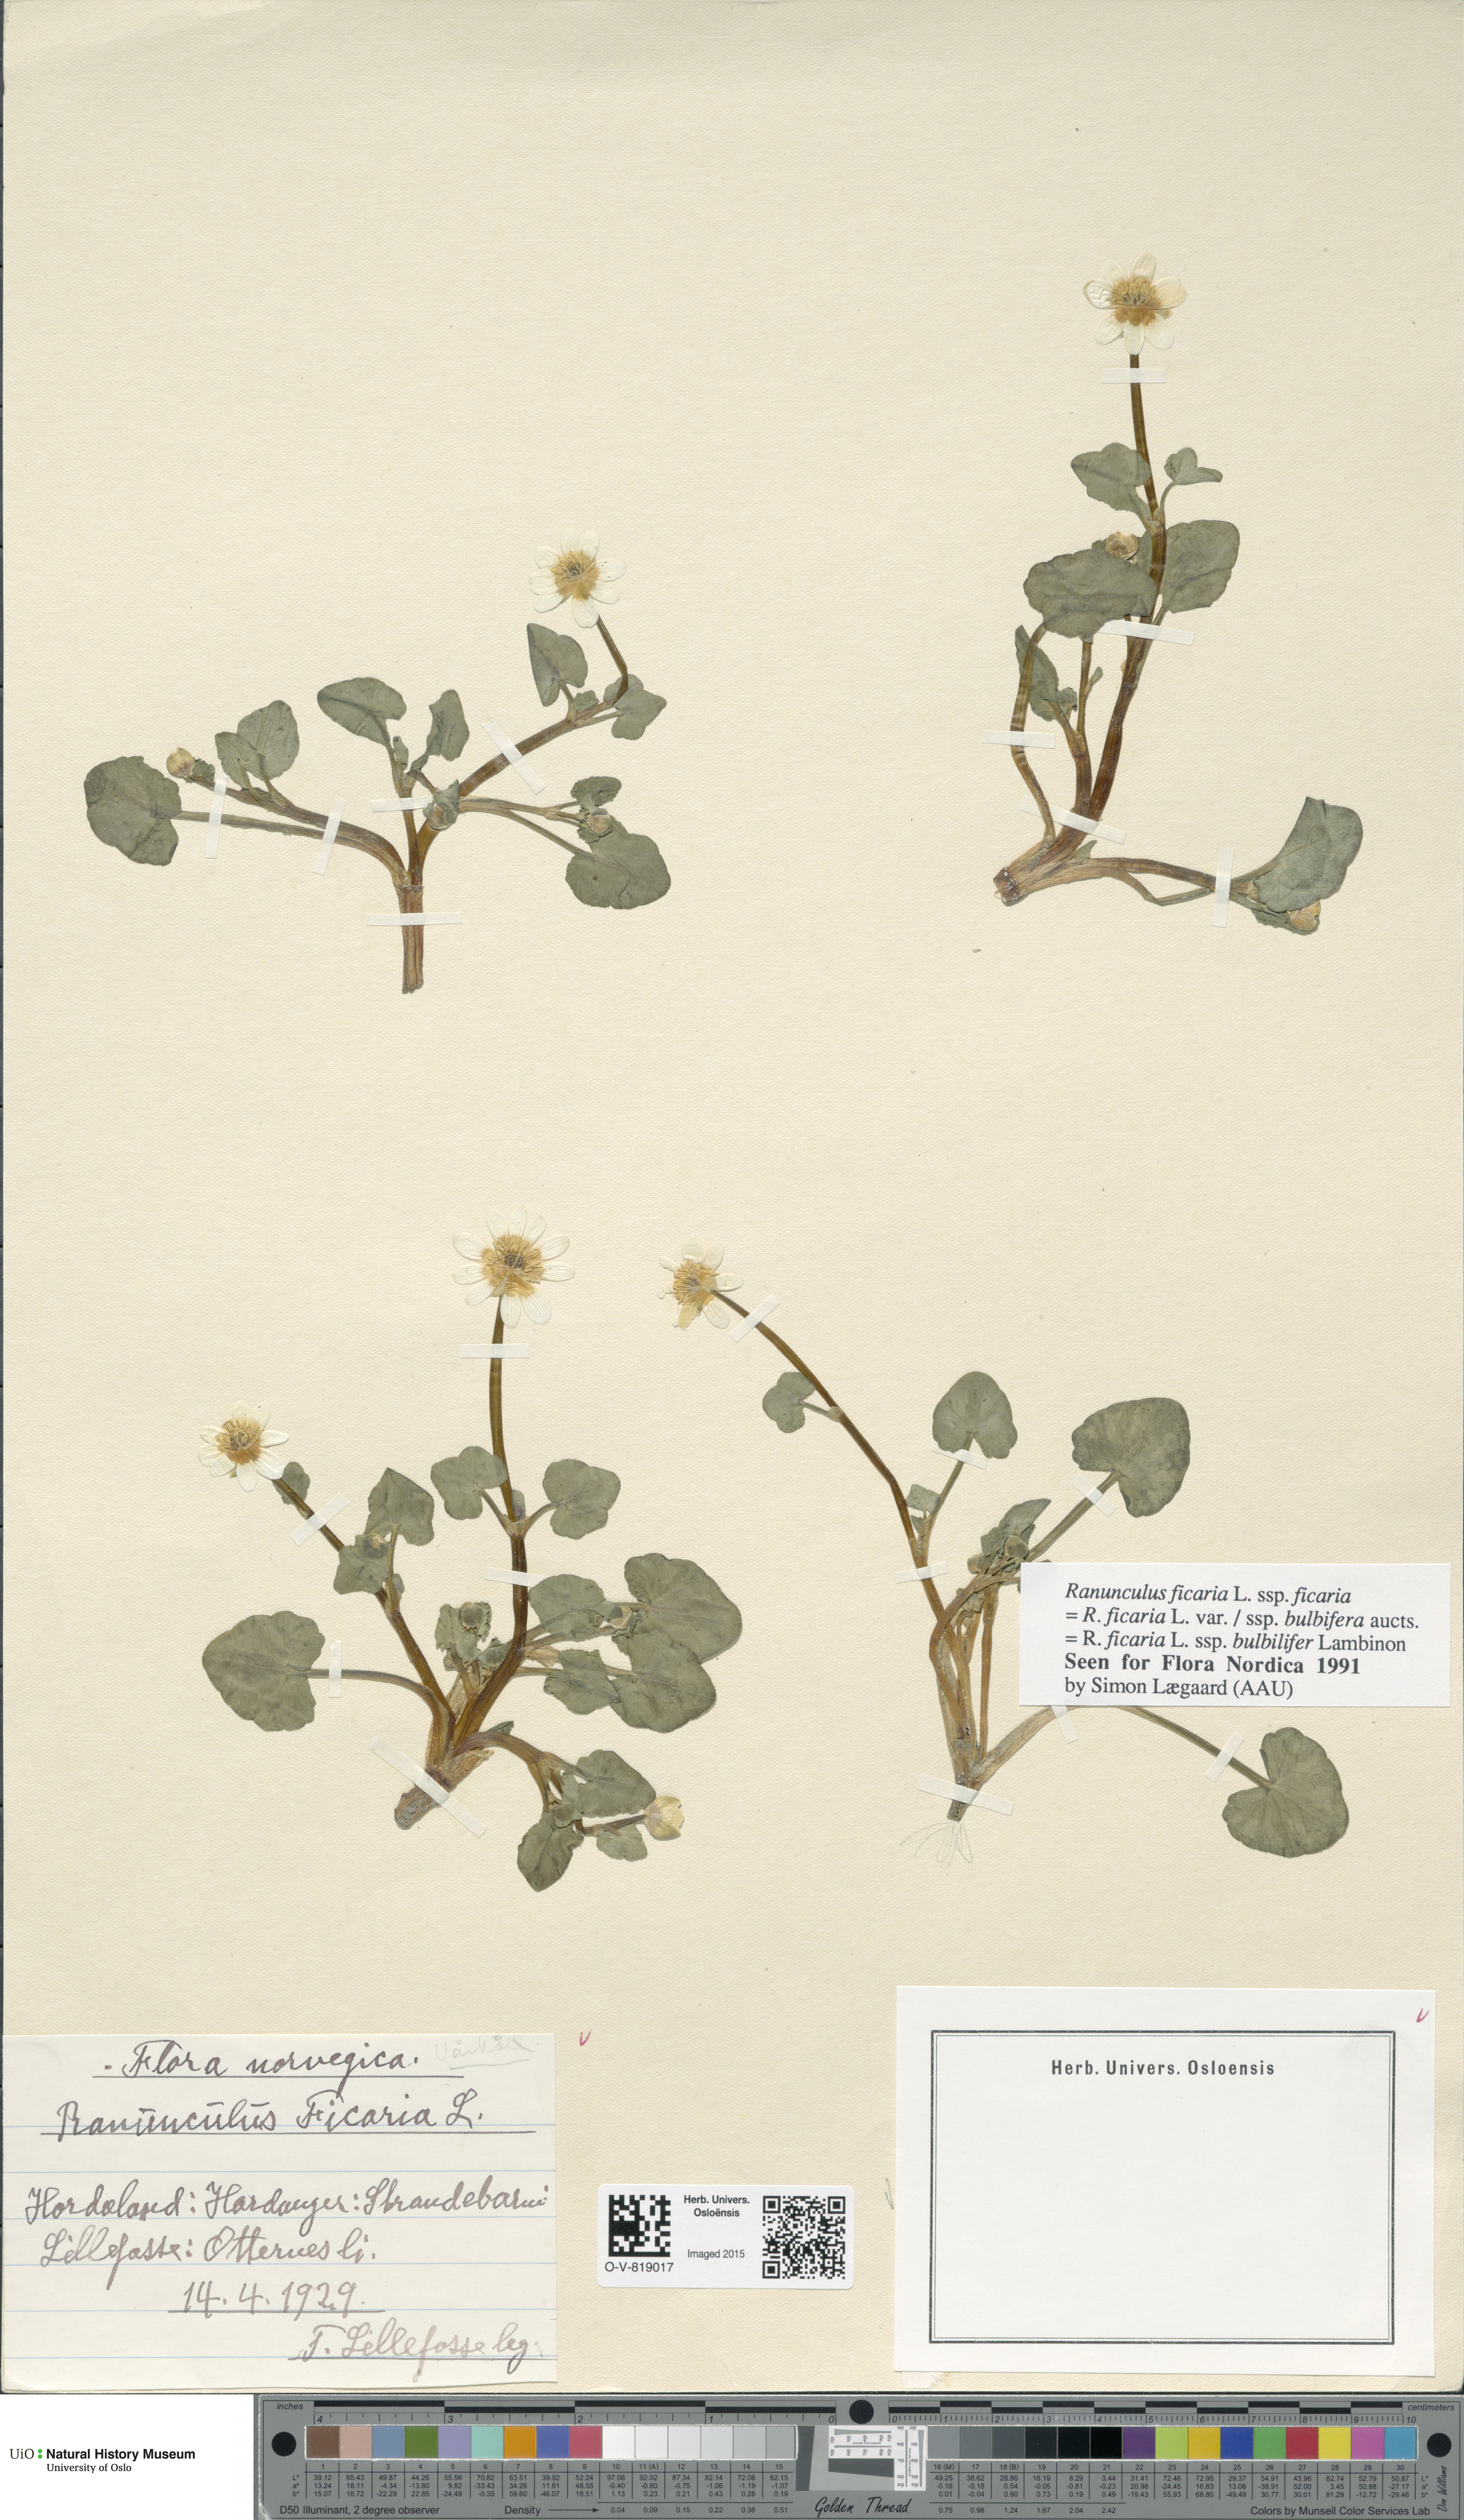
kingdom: Plantae
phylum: Tracheophyta
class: Magnoliopsida
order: Ranunculales
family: Ranunculaceae
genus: Ficaria
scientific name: Ficaria verna
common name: Lesser celandine
